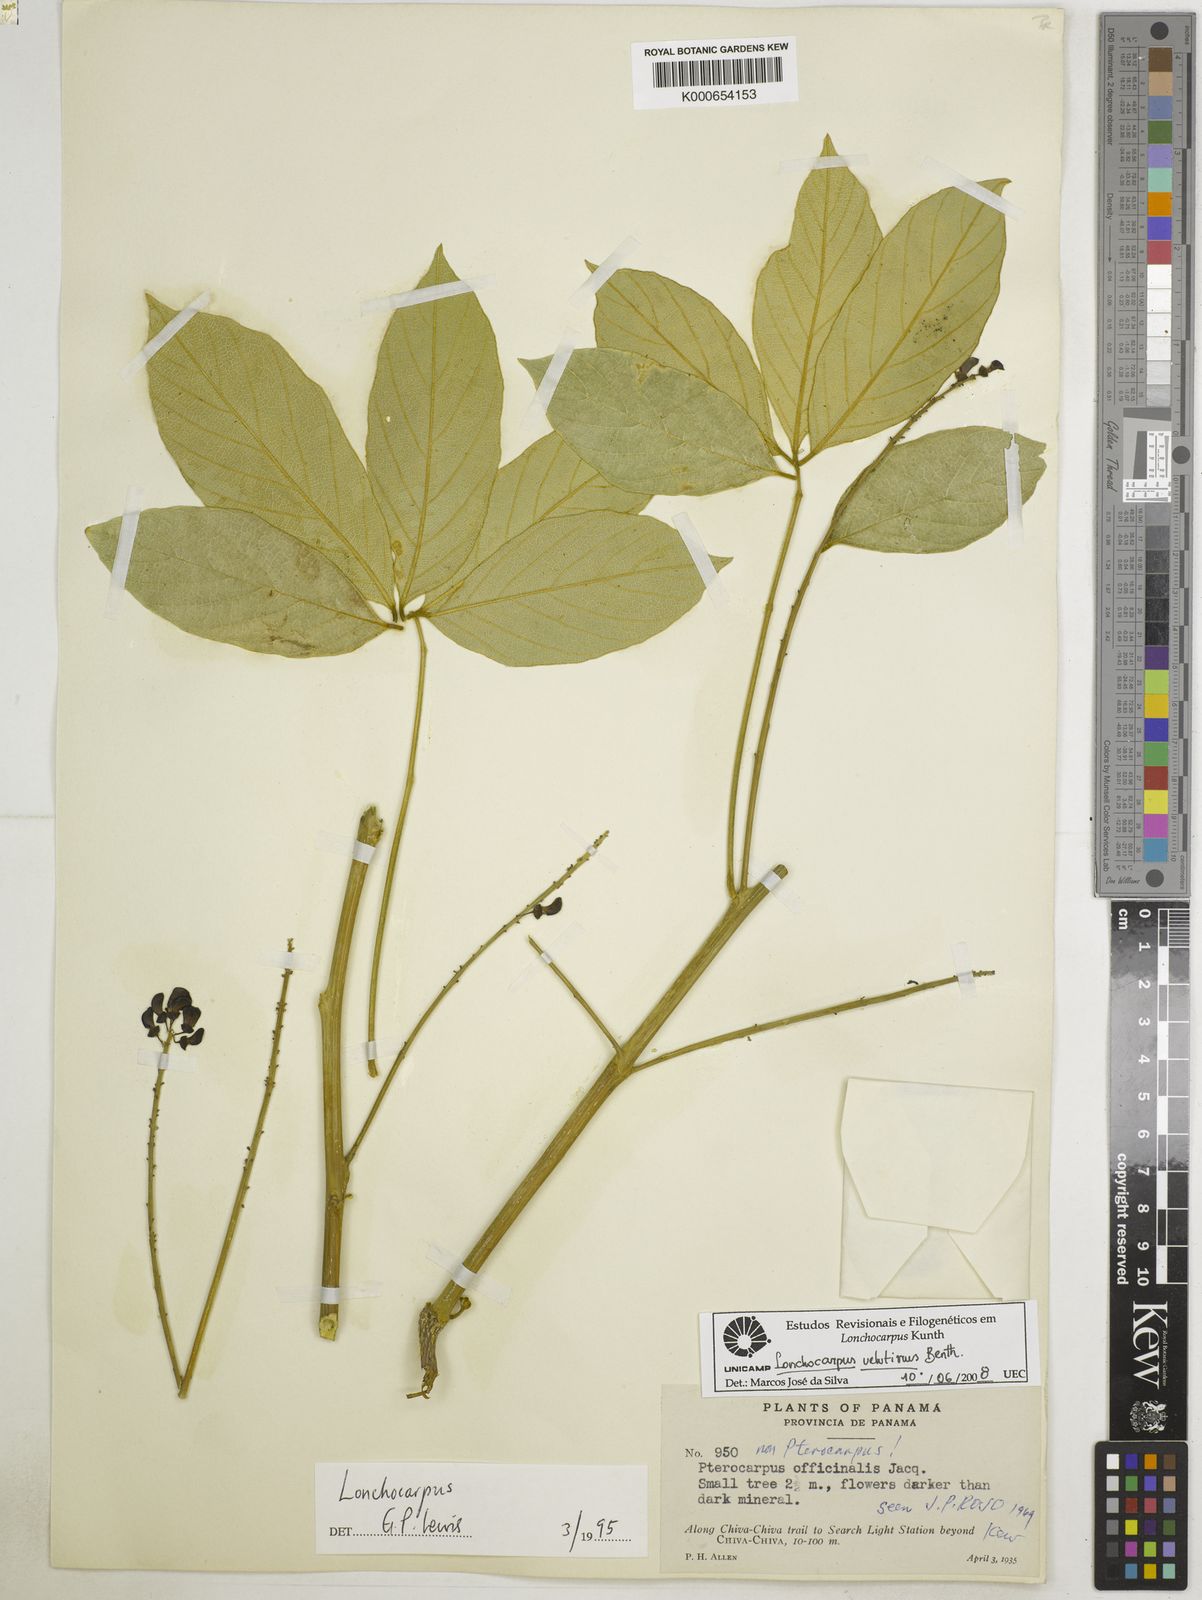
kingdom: Plantae
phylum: Tracheophyta
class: Magnoliopsida
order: Fabales
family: Fabaceae
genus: Lonchocarpus
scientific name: Lonchocarpus velutinus
